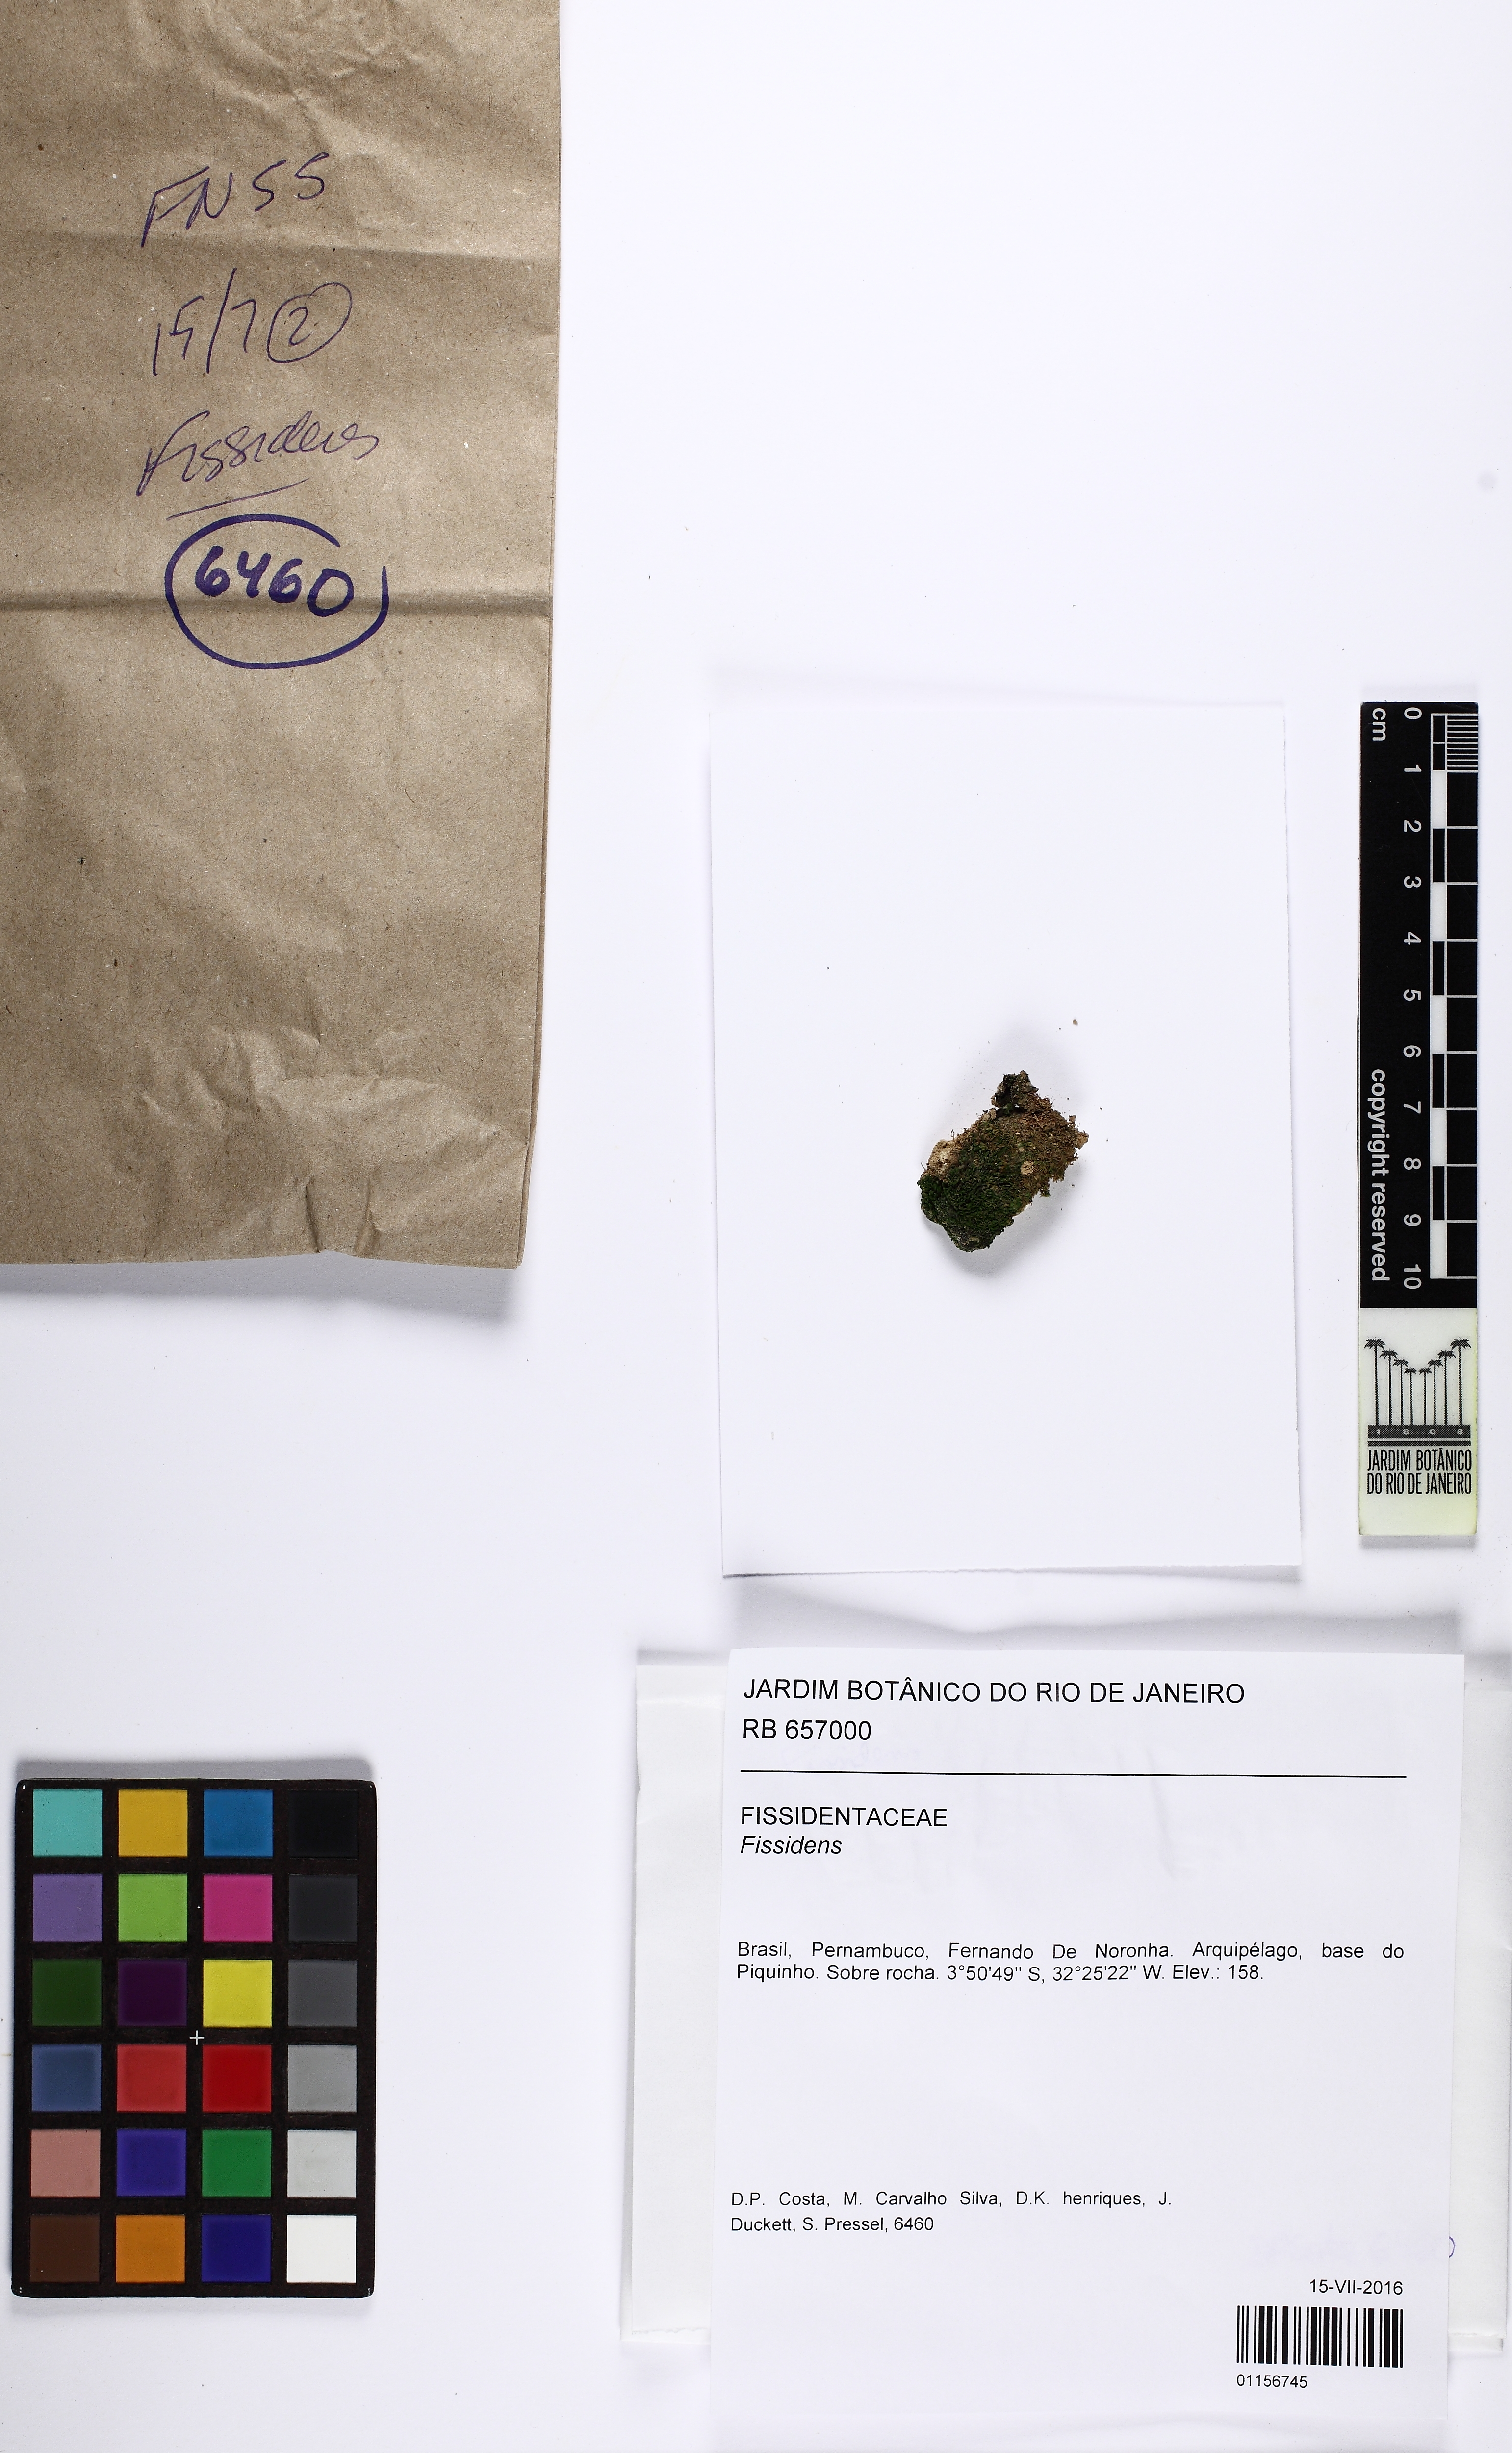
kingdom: Plantae
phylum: Bryophyta
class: Bryopsida
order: Dicranales
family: Fissidentaceae
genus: Fissidens
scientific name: Fissidens
